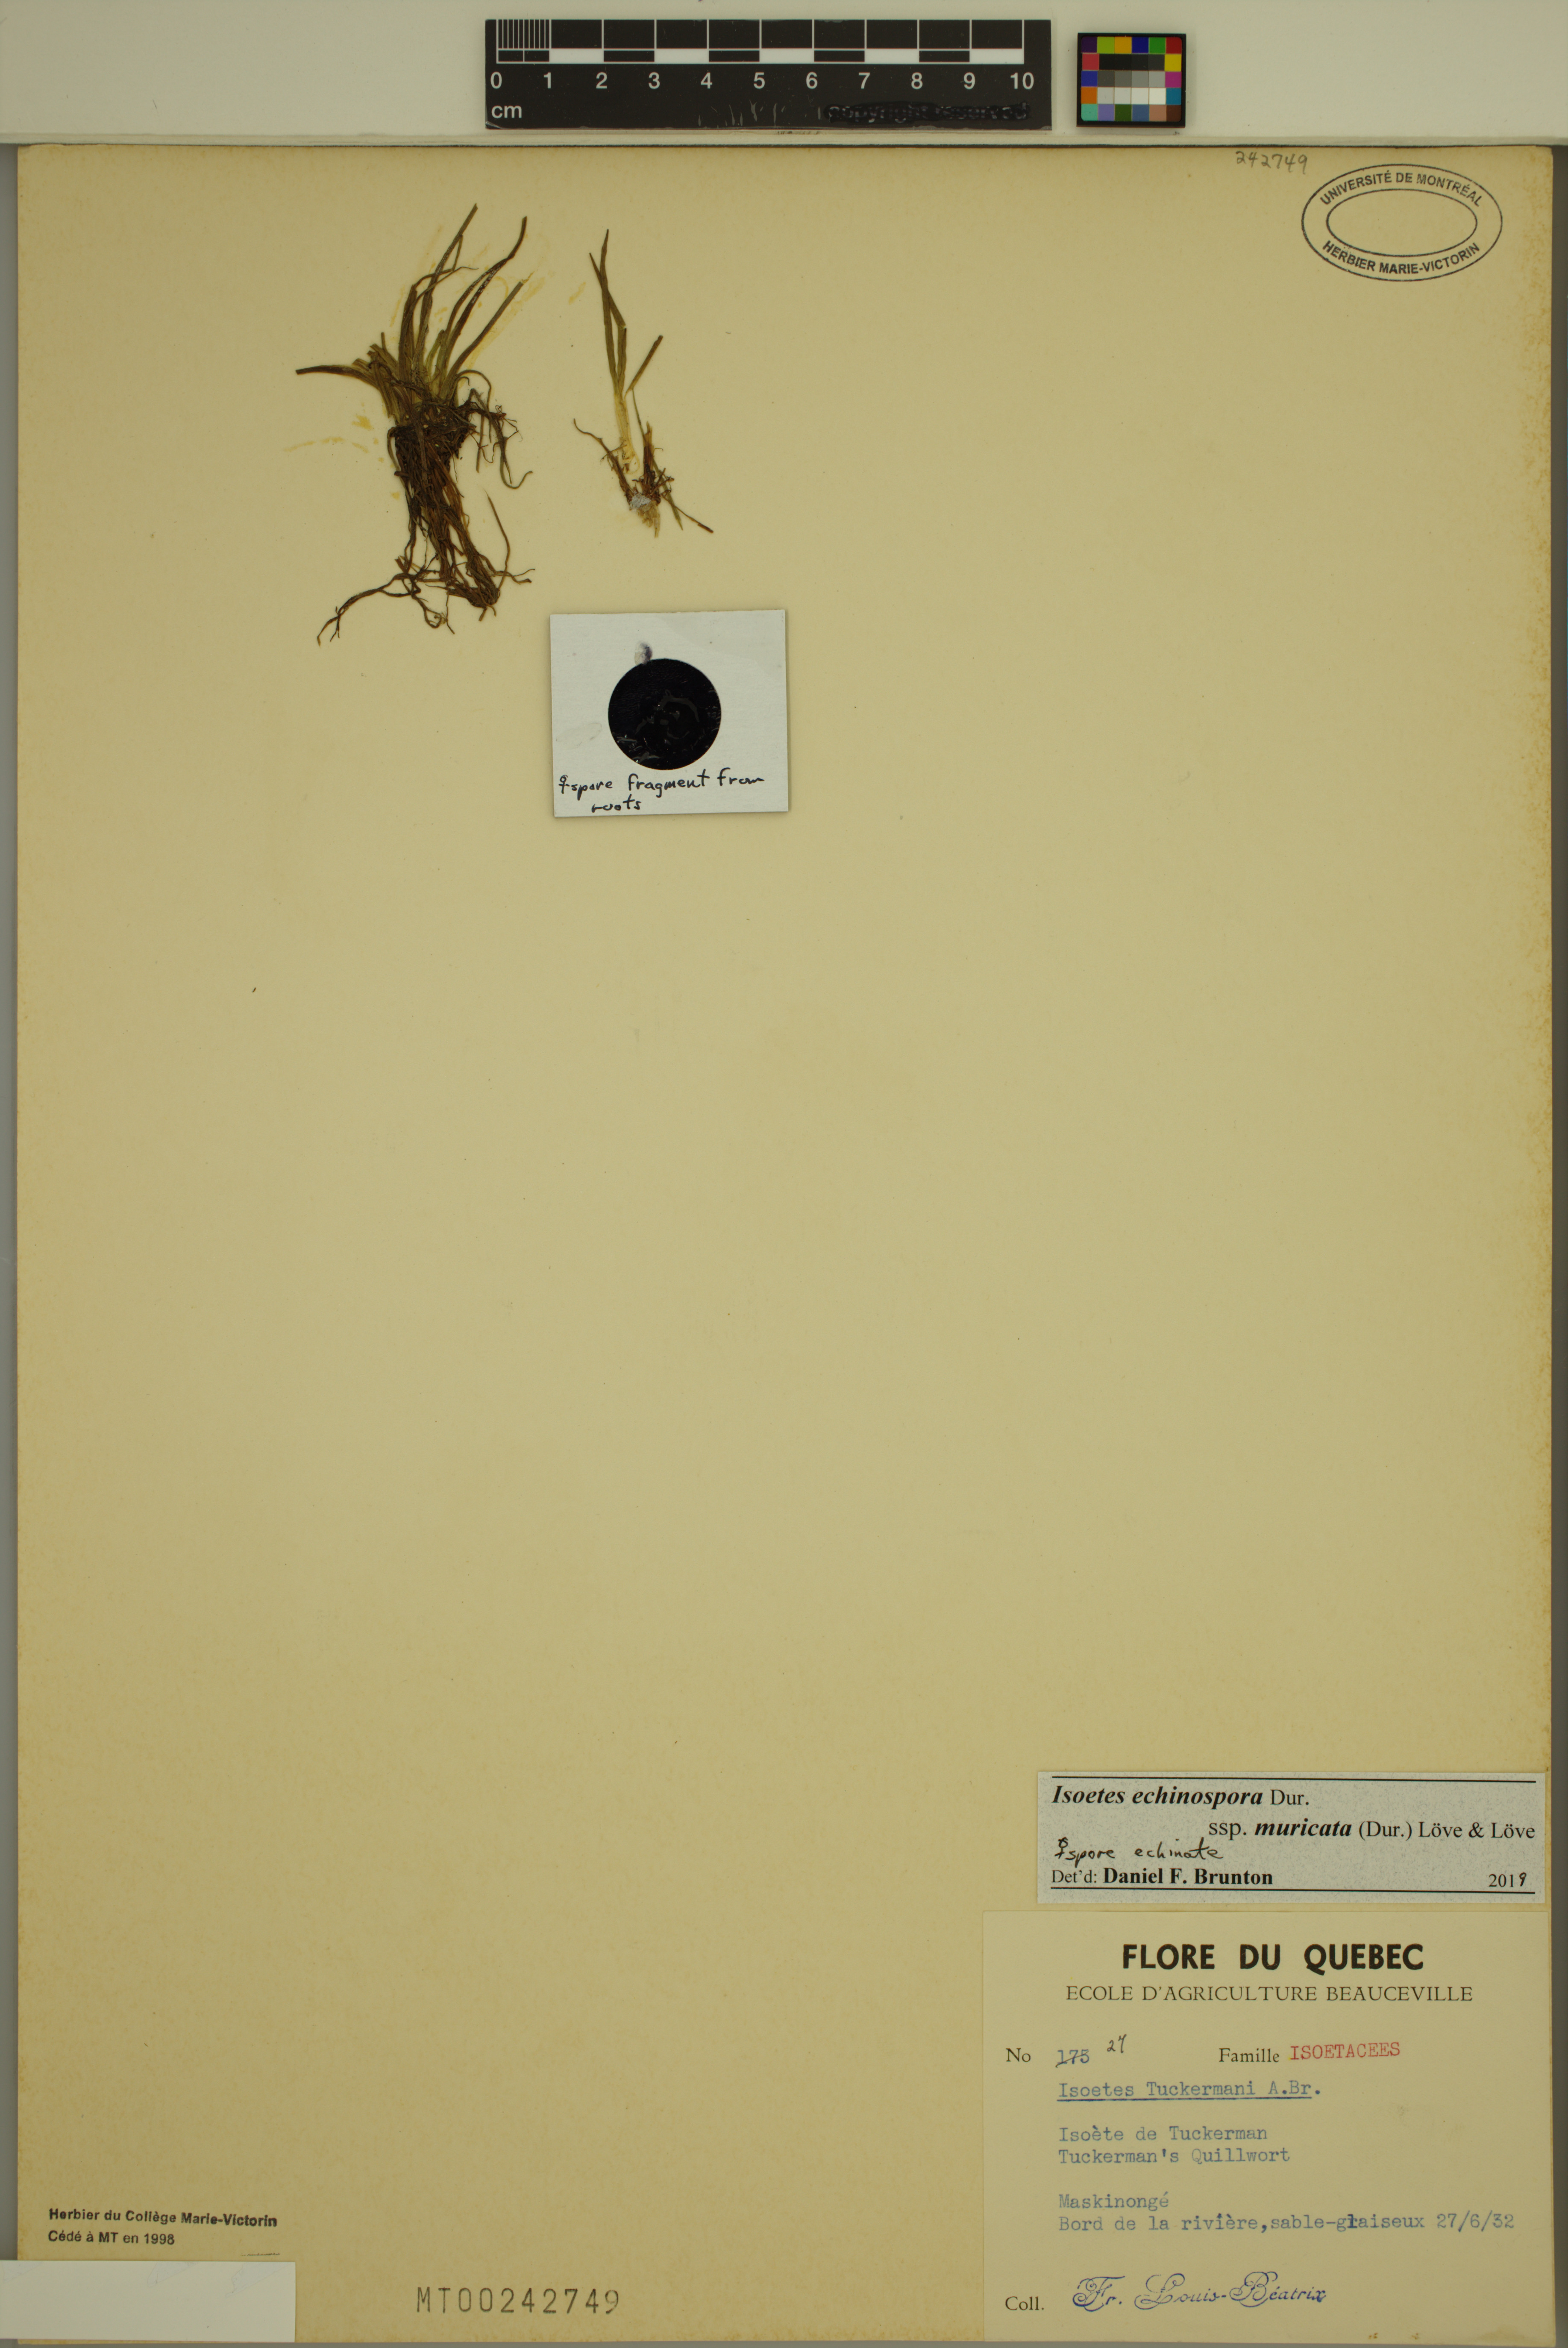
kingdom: Plantae
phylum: Tracheophyta
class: Lycopodiopsida
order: Isoetales
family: Isoetaceae
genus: Isoetes
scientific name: Isoetes echinospora
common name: Spring quillwort
